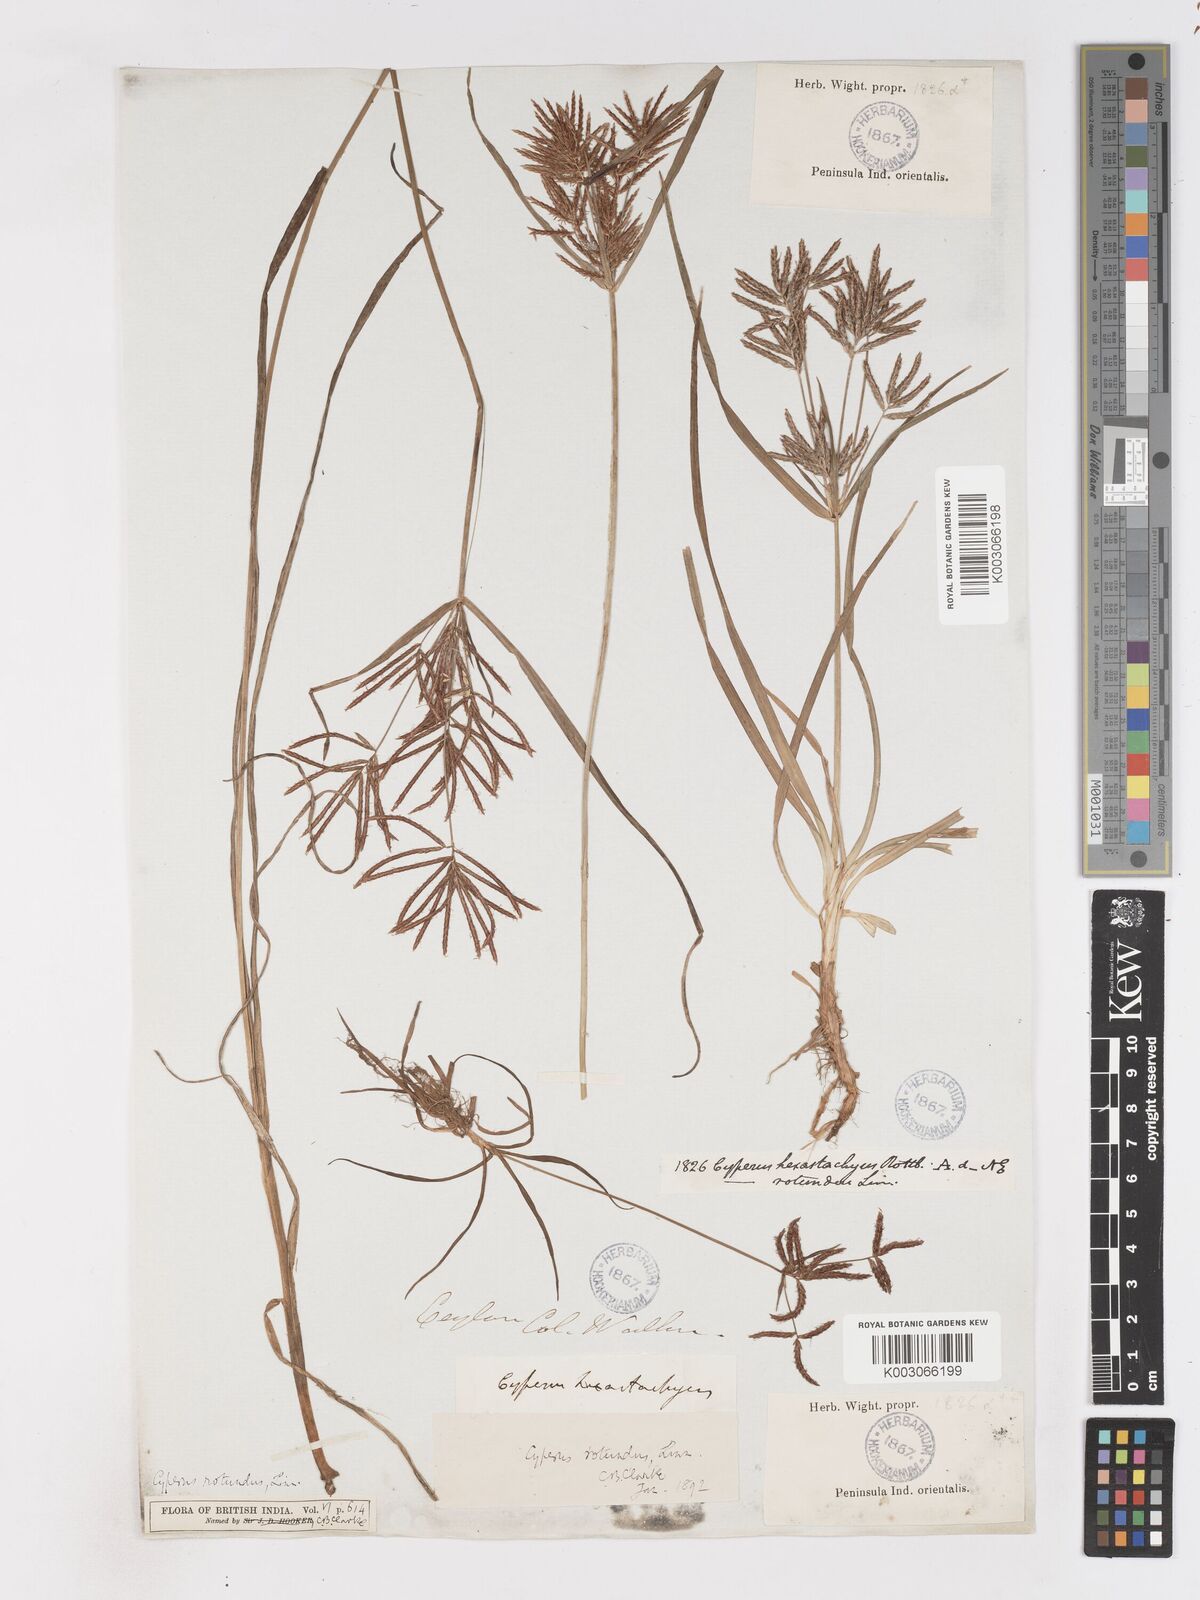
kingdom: Plantae
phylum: Tracheophyta
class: Liliopsida
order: Poales
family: Cyperaceae
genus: Cyperus
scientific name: Cyperus bifax
